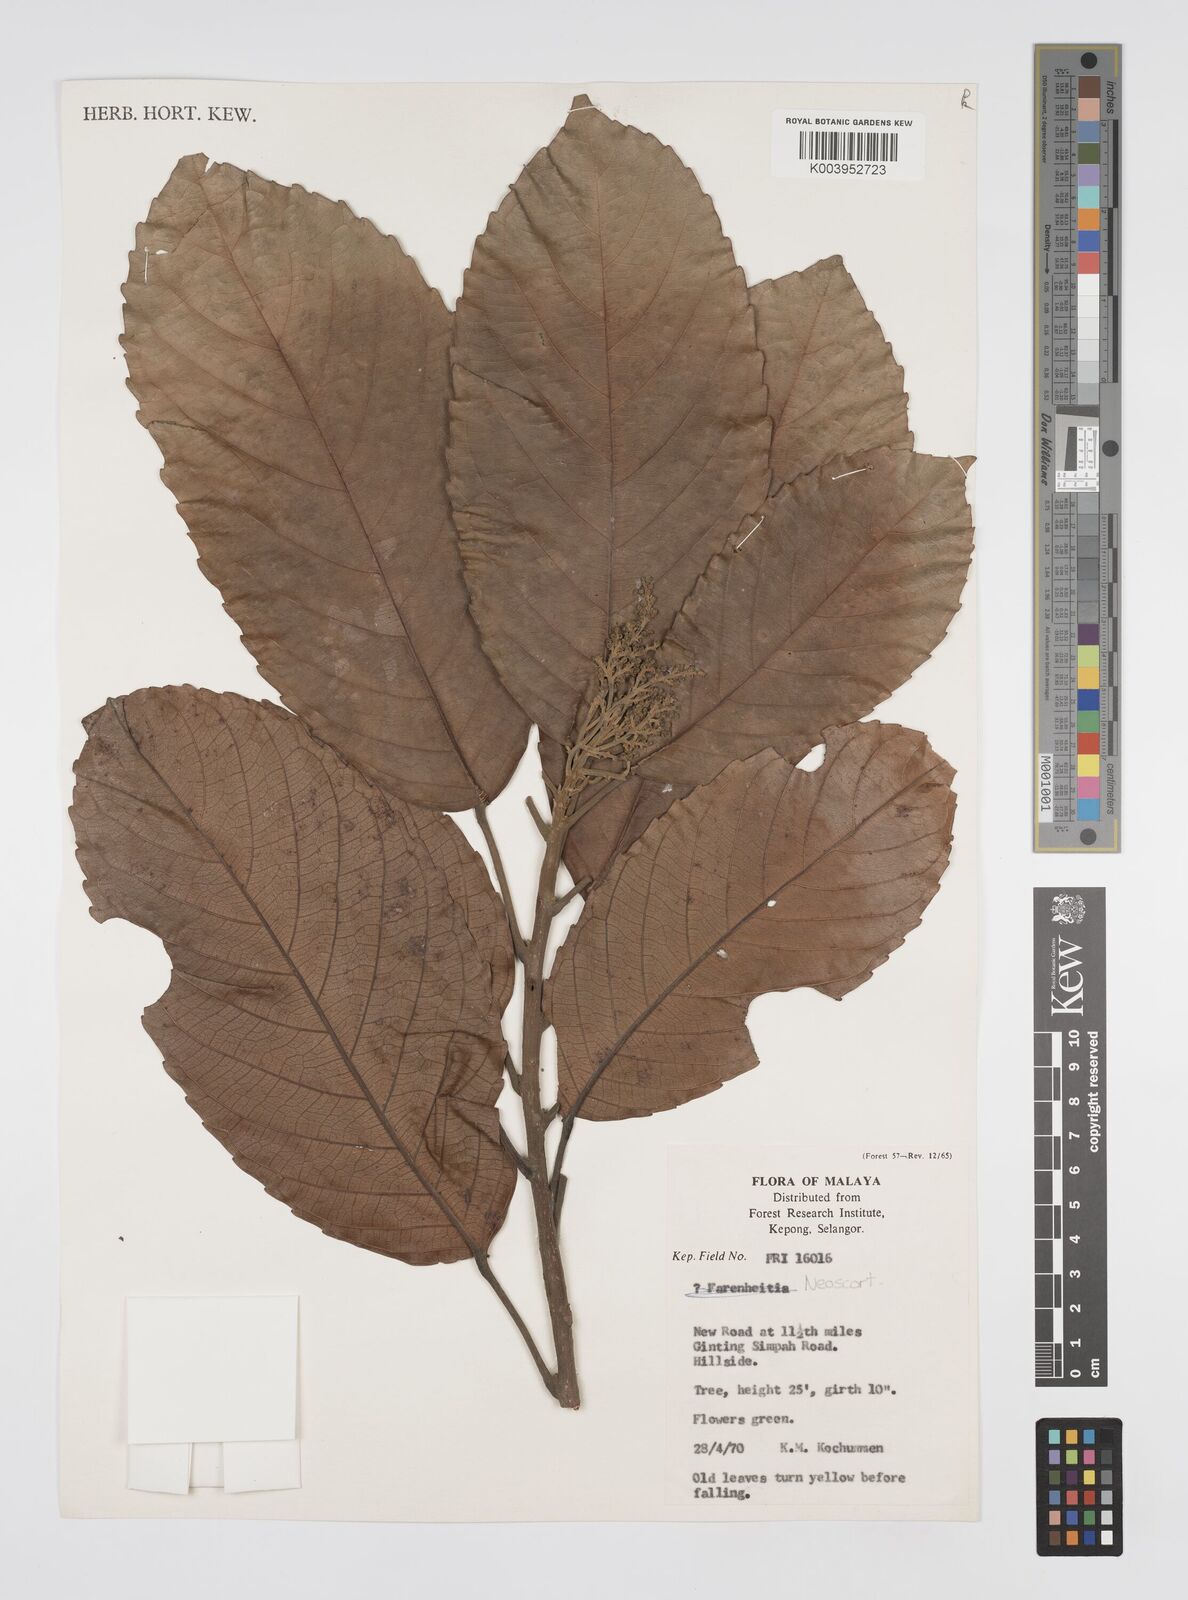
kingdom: Plantae
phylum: Tracheophyta
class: Magnoliopsida
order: Malpighiales
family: Euphorbiaceae
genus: Neoscortechinia
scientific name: Neoscortechinia nicobarica
